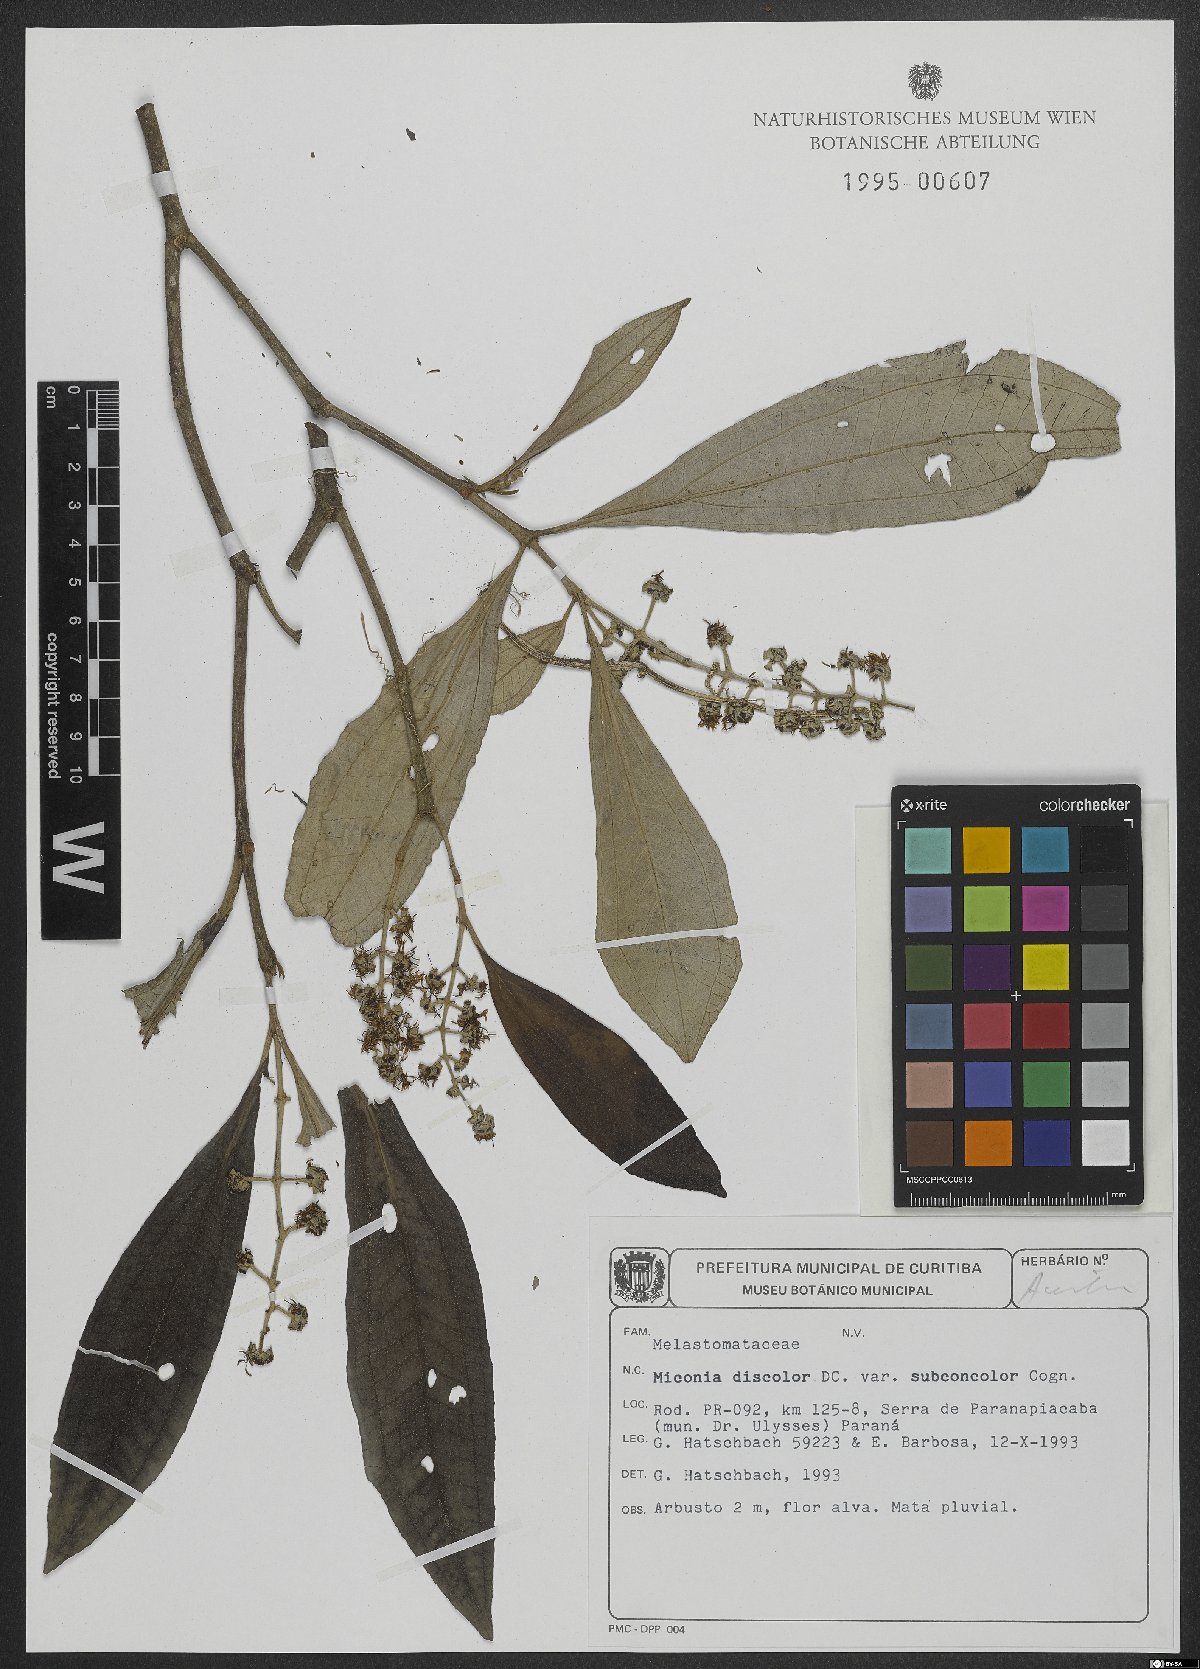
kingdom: Plantae
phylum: Tracheophyta
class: Magnoliopsida
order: Myrtales
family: Melastomataceae
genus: Miconia
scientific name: Miconia discolor
